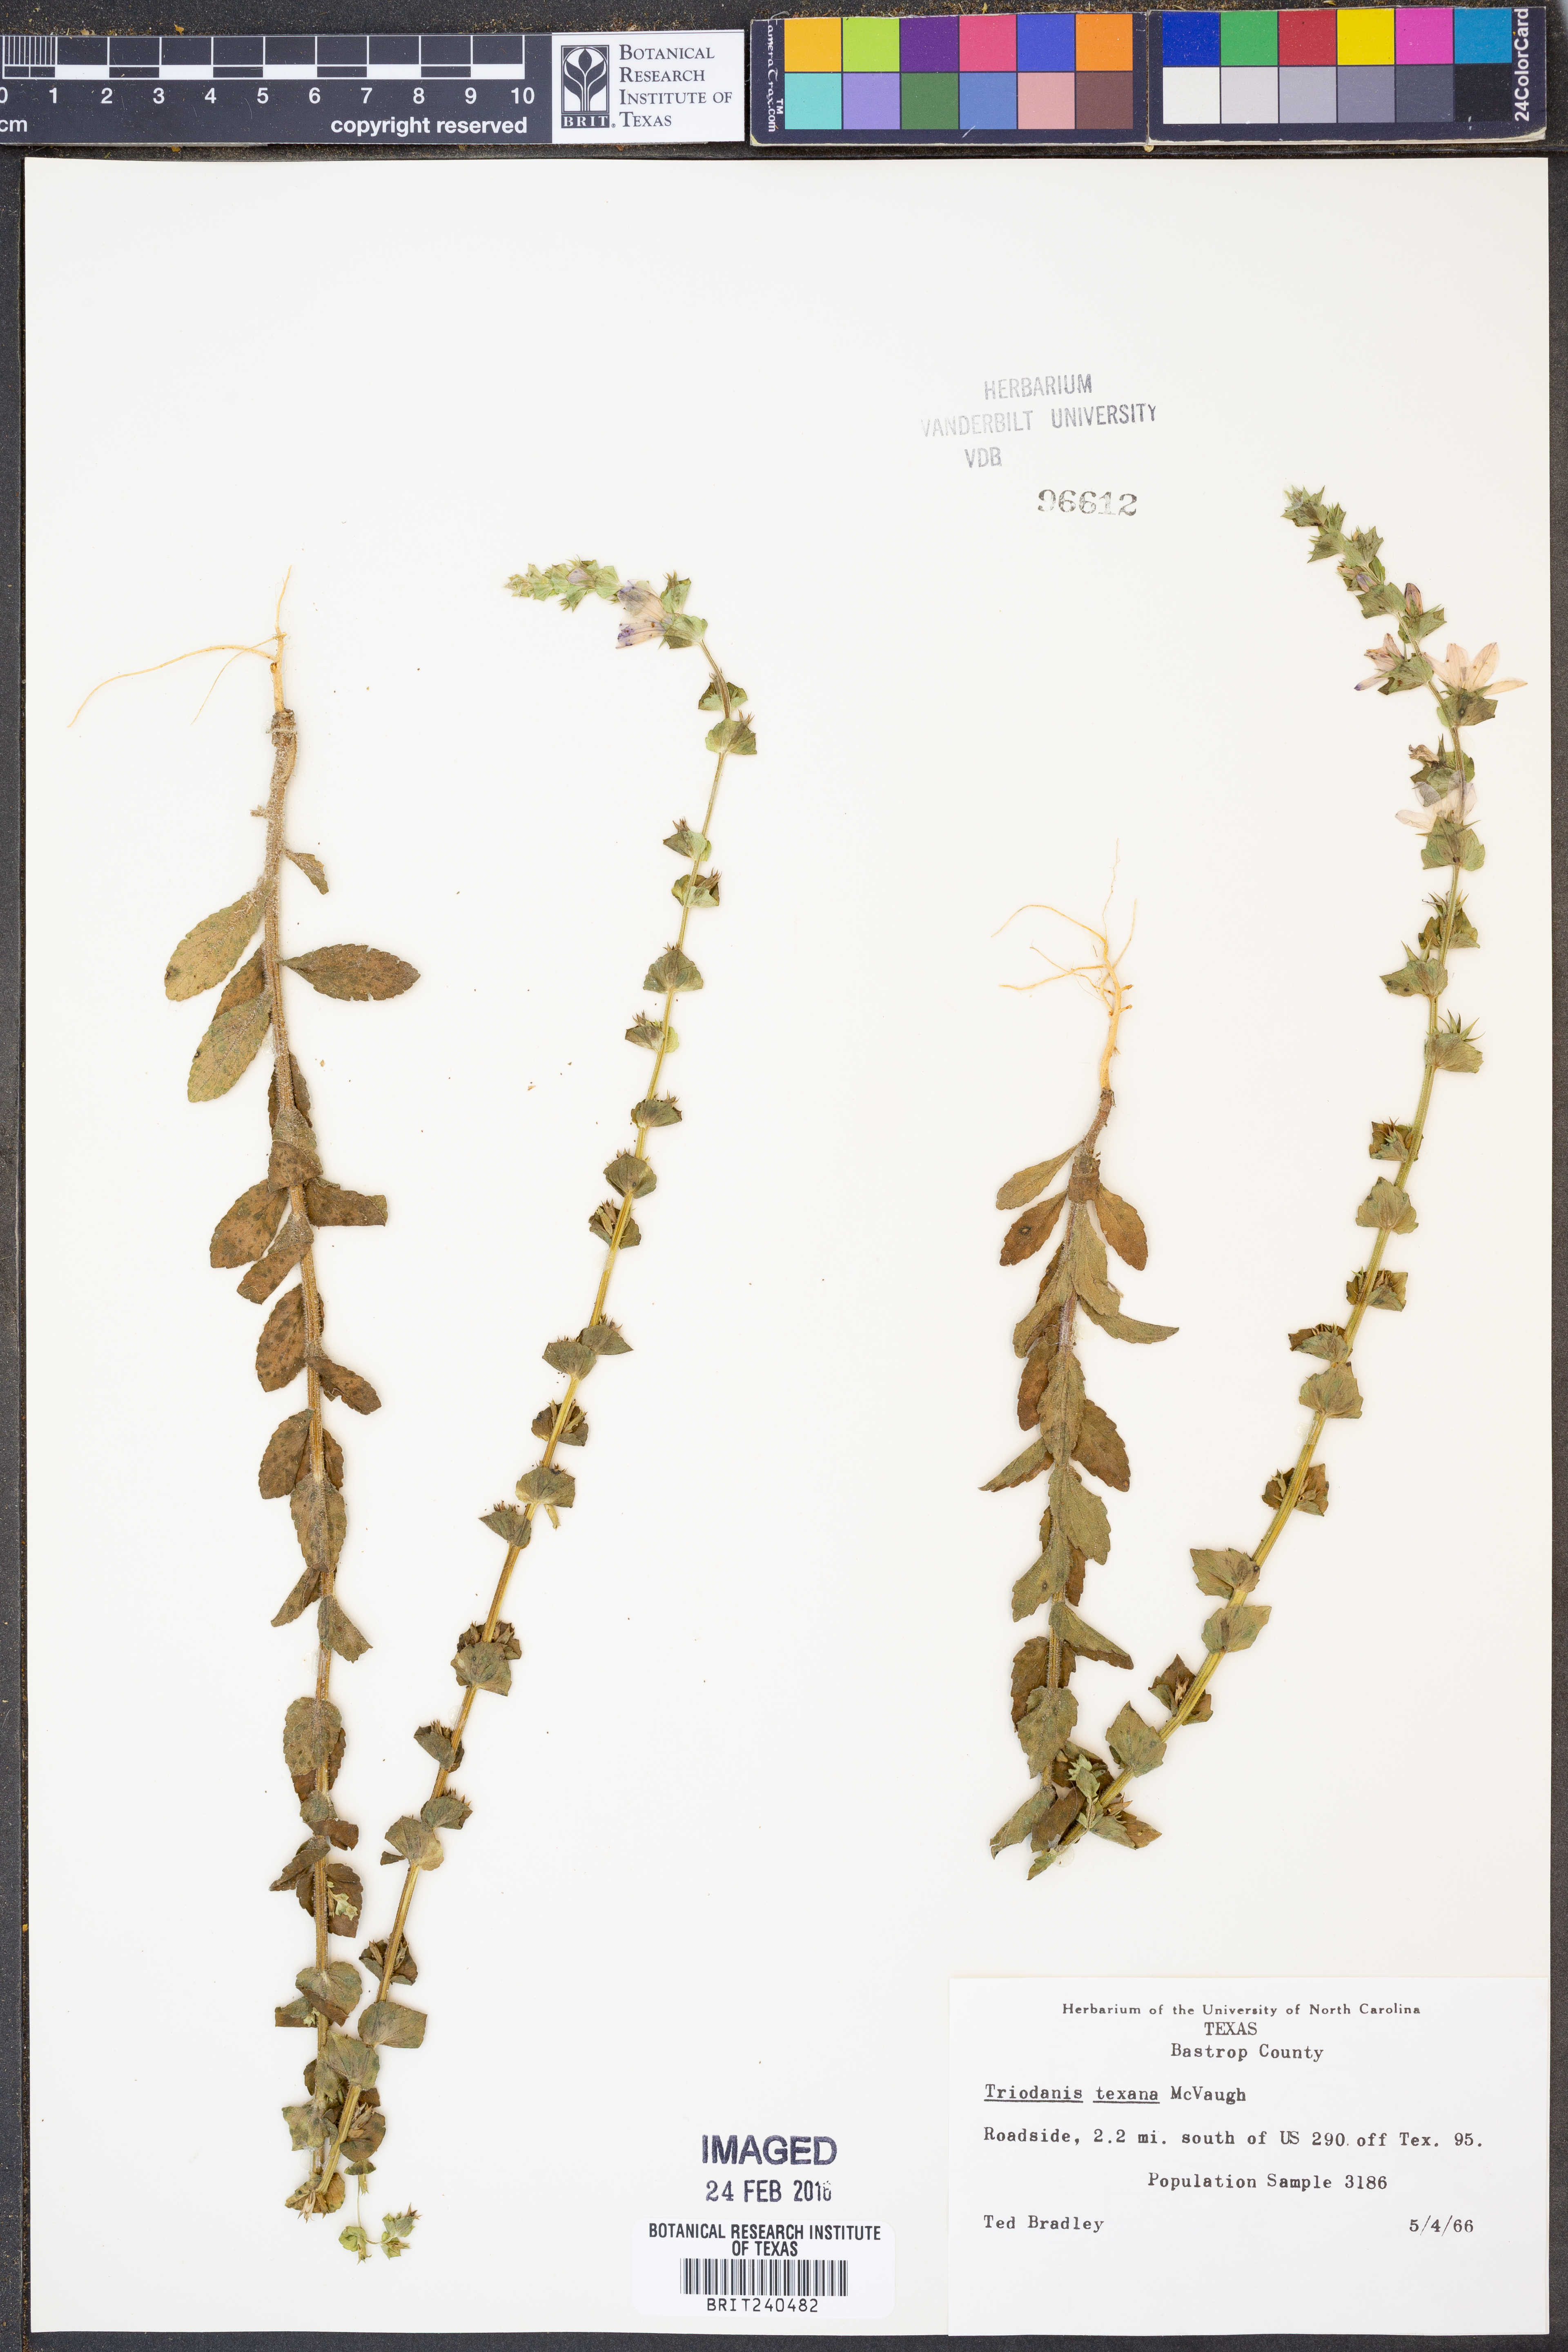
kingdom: Plantae
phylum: Tracheophyta
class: Magnoliopsida
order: Asterales
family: Campanulaceae
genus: Triodanis
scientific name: Triodanis texana
